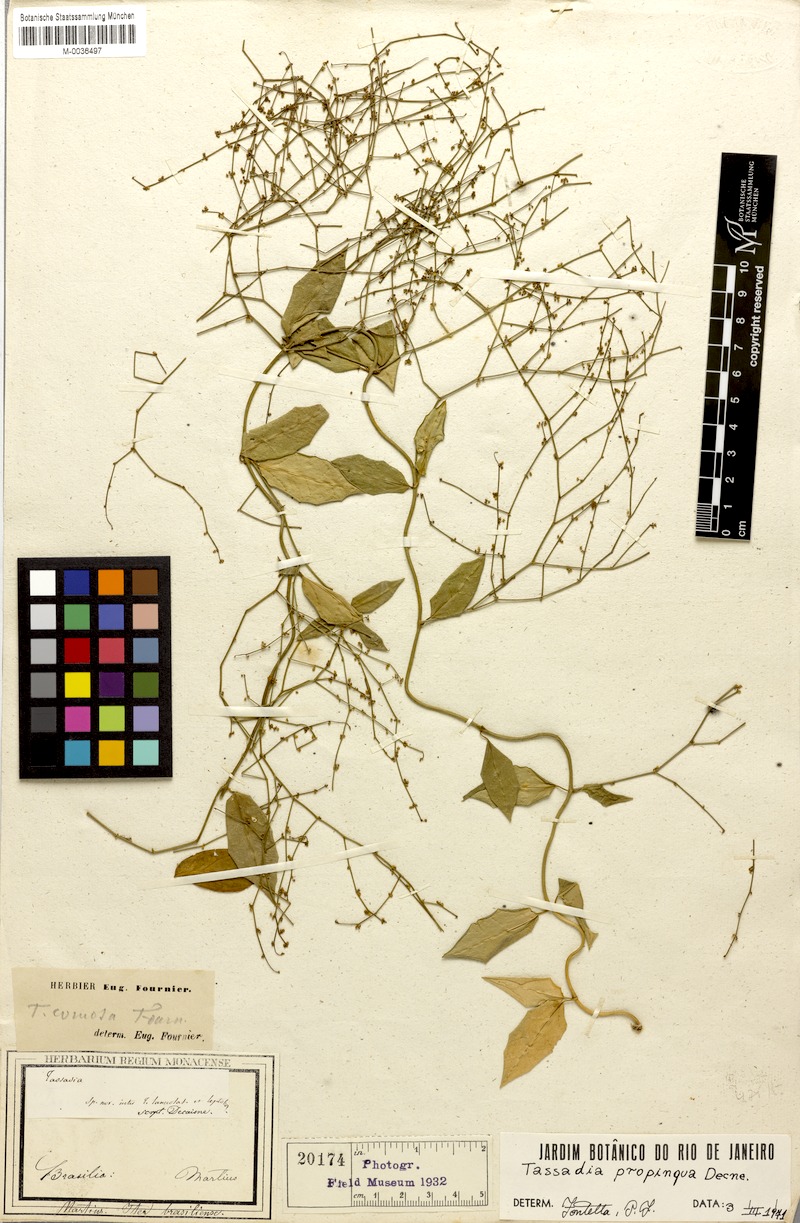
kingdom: Plantae
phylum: Tracheophyta
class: Magnoliopsida
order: Gentianales
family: Apocynaceae
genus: Tassadia
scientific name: Tassadia propinqua
